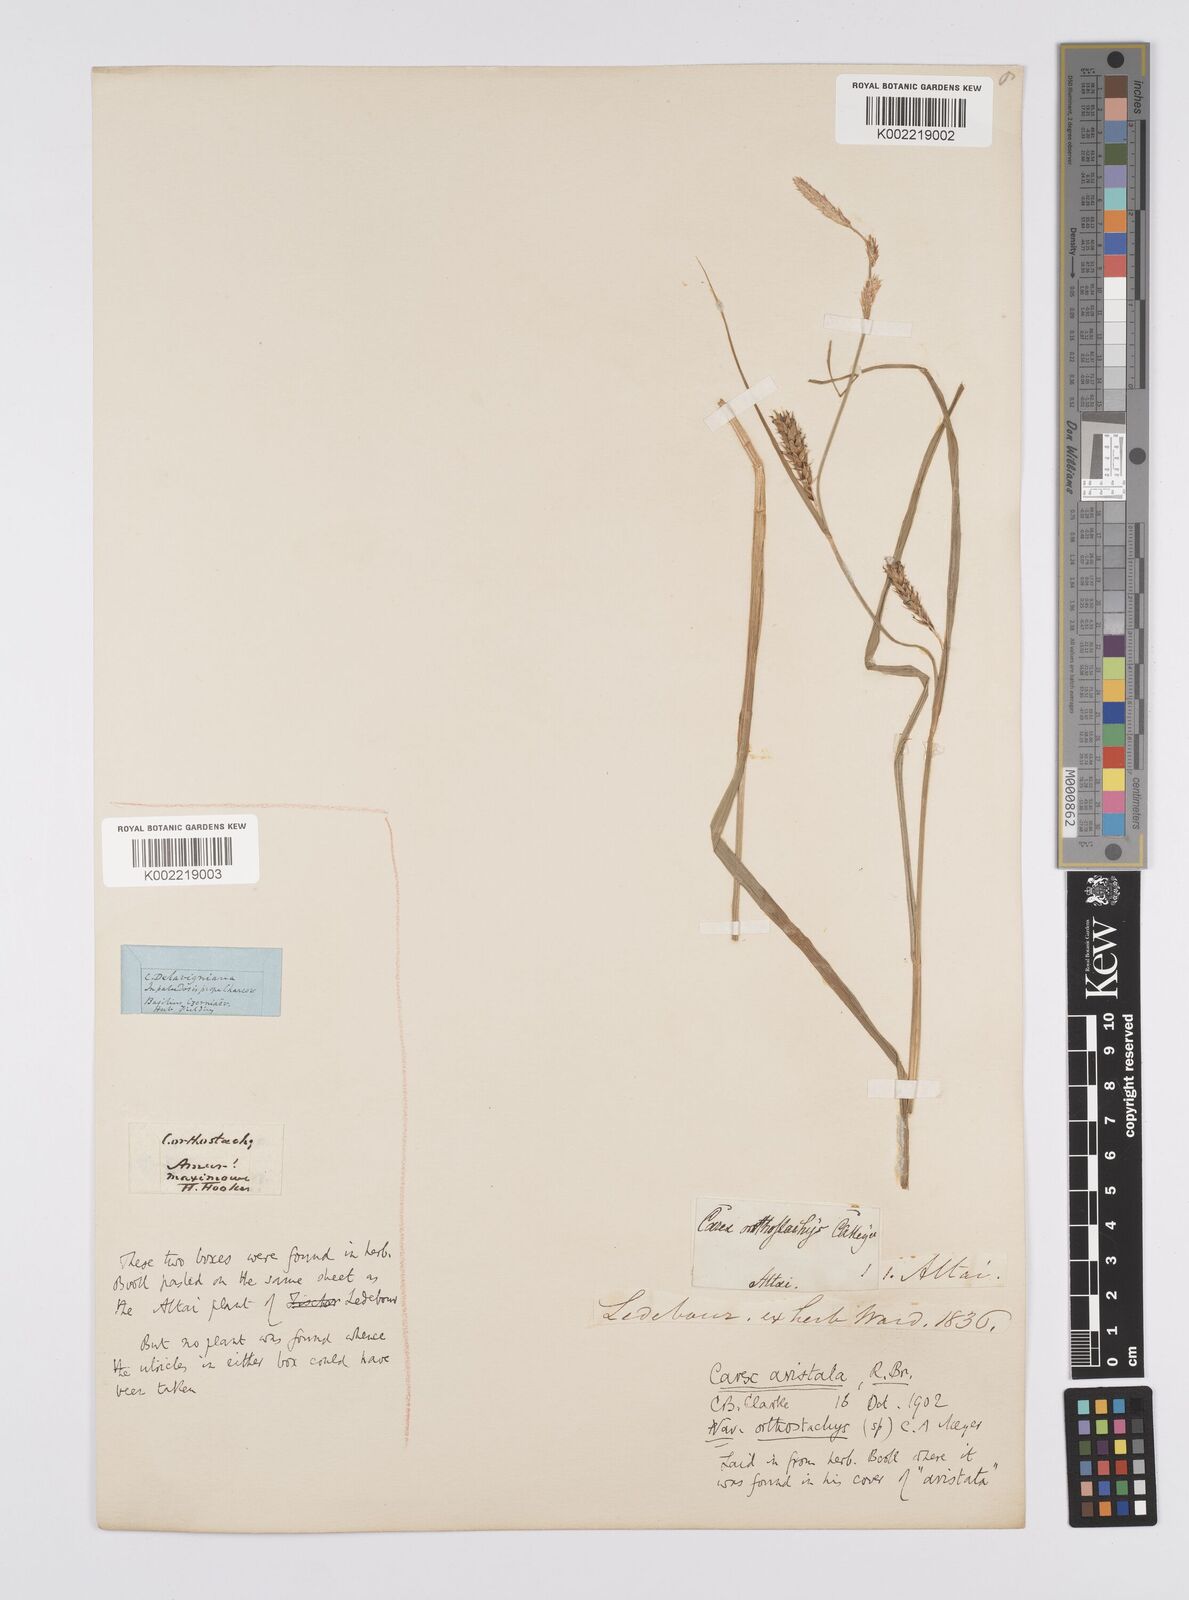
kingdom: Plantae
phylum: Tracheophyta
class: Liliopsida
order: Poales
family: Cyperaceae
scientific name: Cyperaceae
